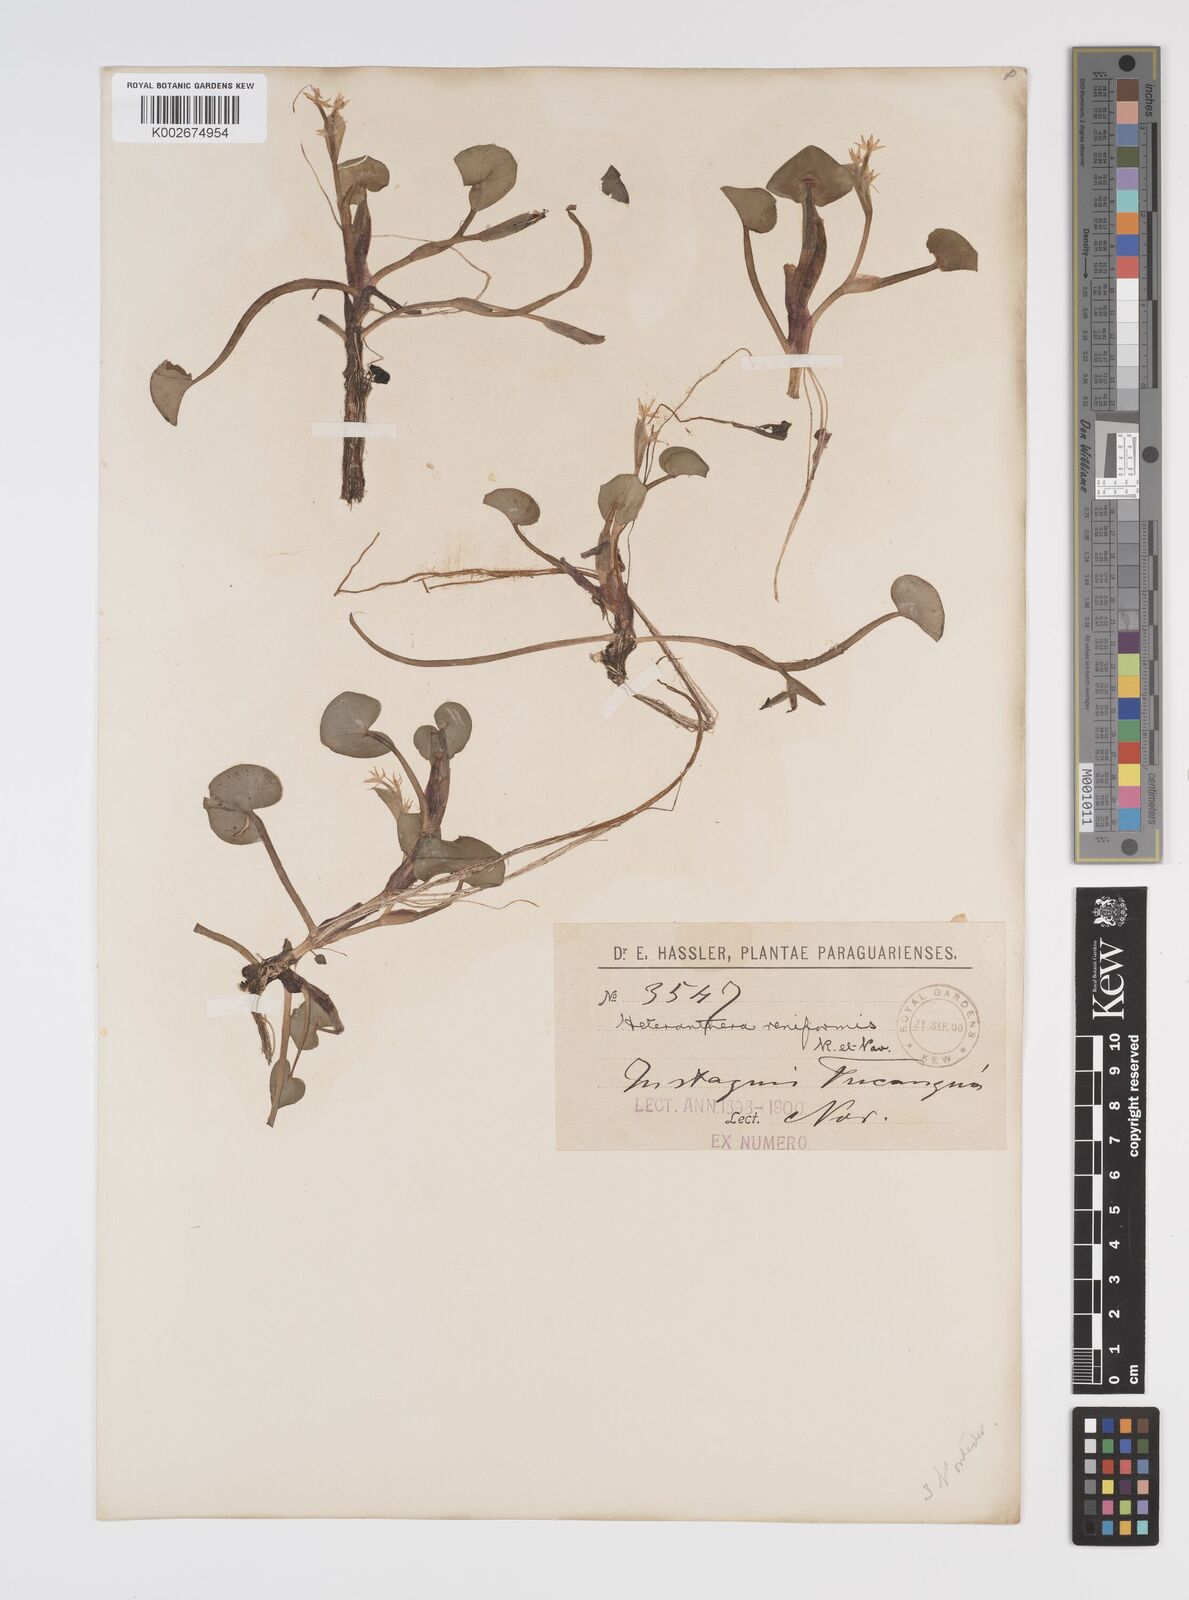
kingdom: Plantae
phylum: Tracheophyta
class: Liliopsida
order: Commelinales
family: Pontederiaceae
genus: Heteranthera
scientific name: Heteranthera reniformis
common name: Kidneyleaf mudplantain
